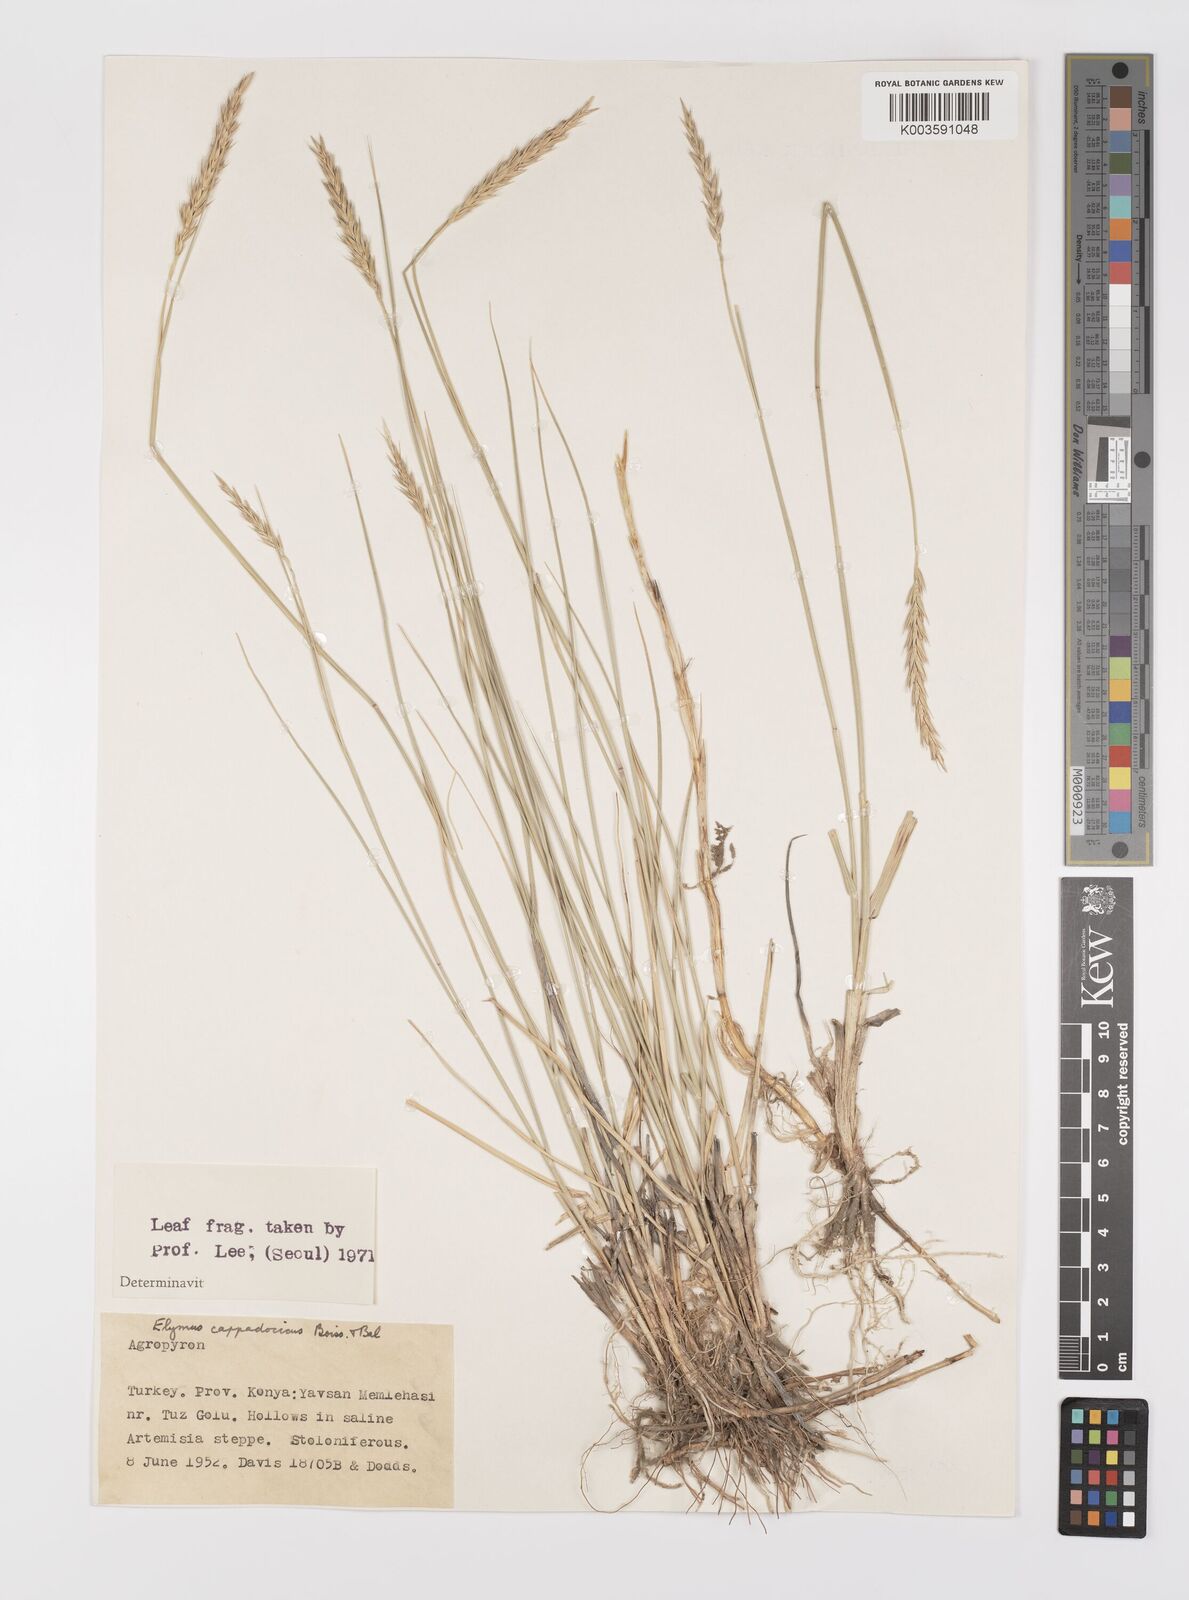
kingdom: Plantae
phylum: Tracheophyta
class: Liliopsida
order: Poales
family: Poaceae
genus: Leymus
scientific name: Leymus cappadocicus
